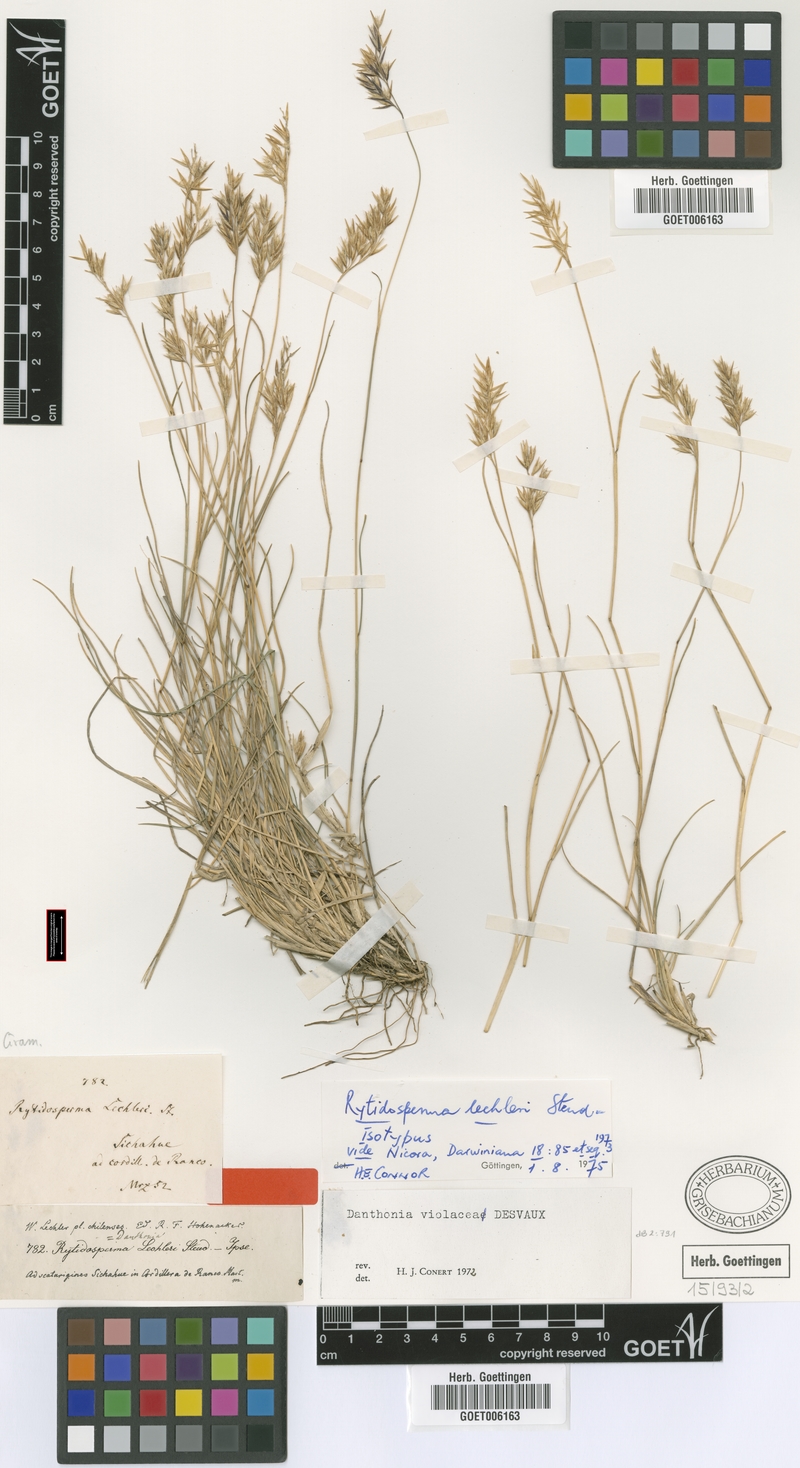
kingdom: Plantae
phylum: Tracheophyta
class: Liliopsida
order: Poales
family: Poaceae
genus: Rytidosperma
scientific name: Rytidosperma violaceum
